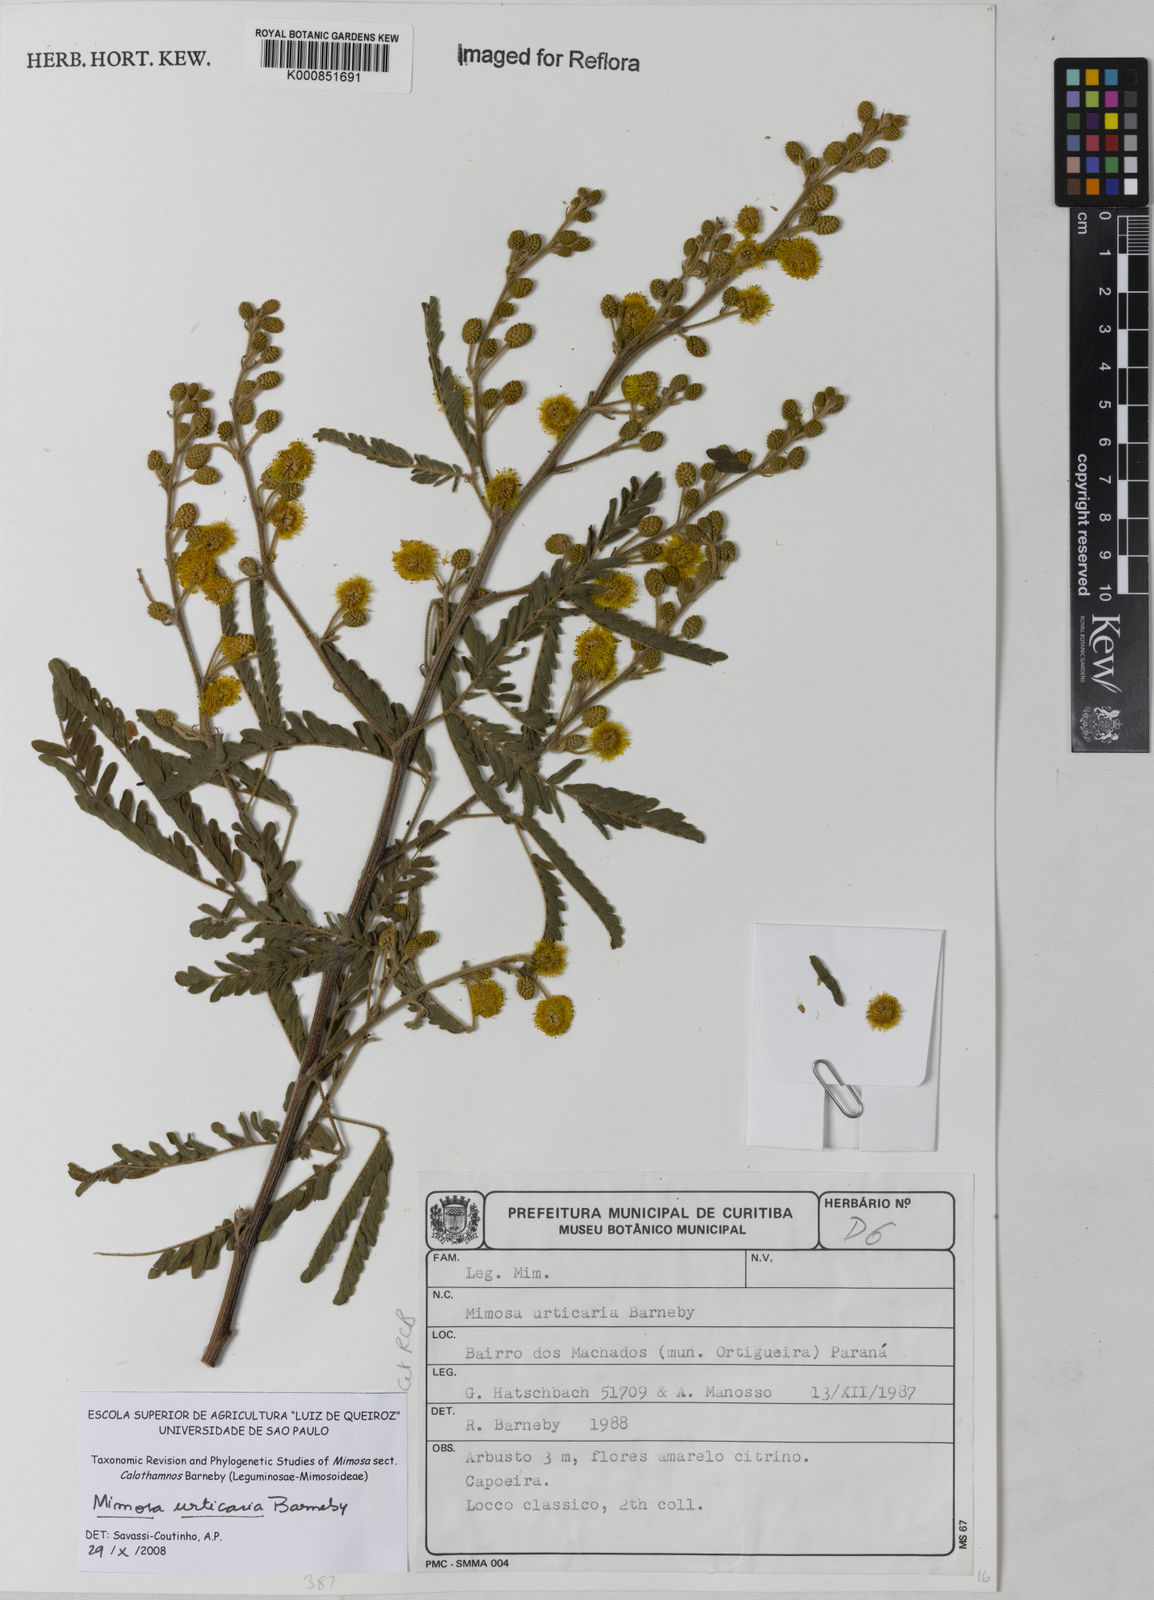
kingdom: Plantae
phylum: Tracheophyta
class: Magnoliopsida
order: Fabales
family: Fabaceae
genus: Mimosa
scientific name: Mimosa urticaria
